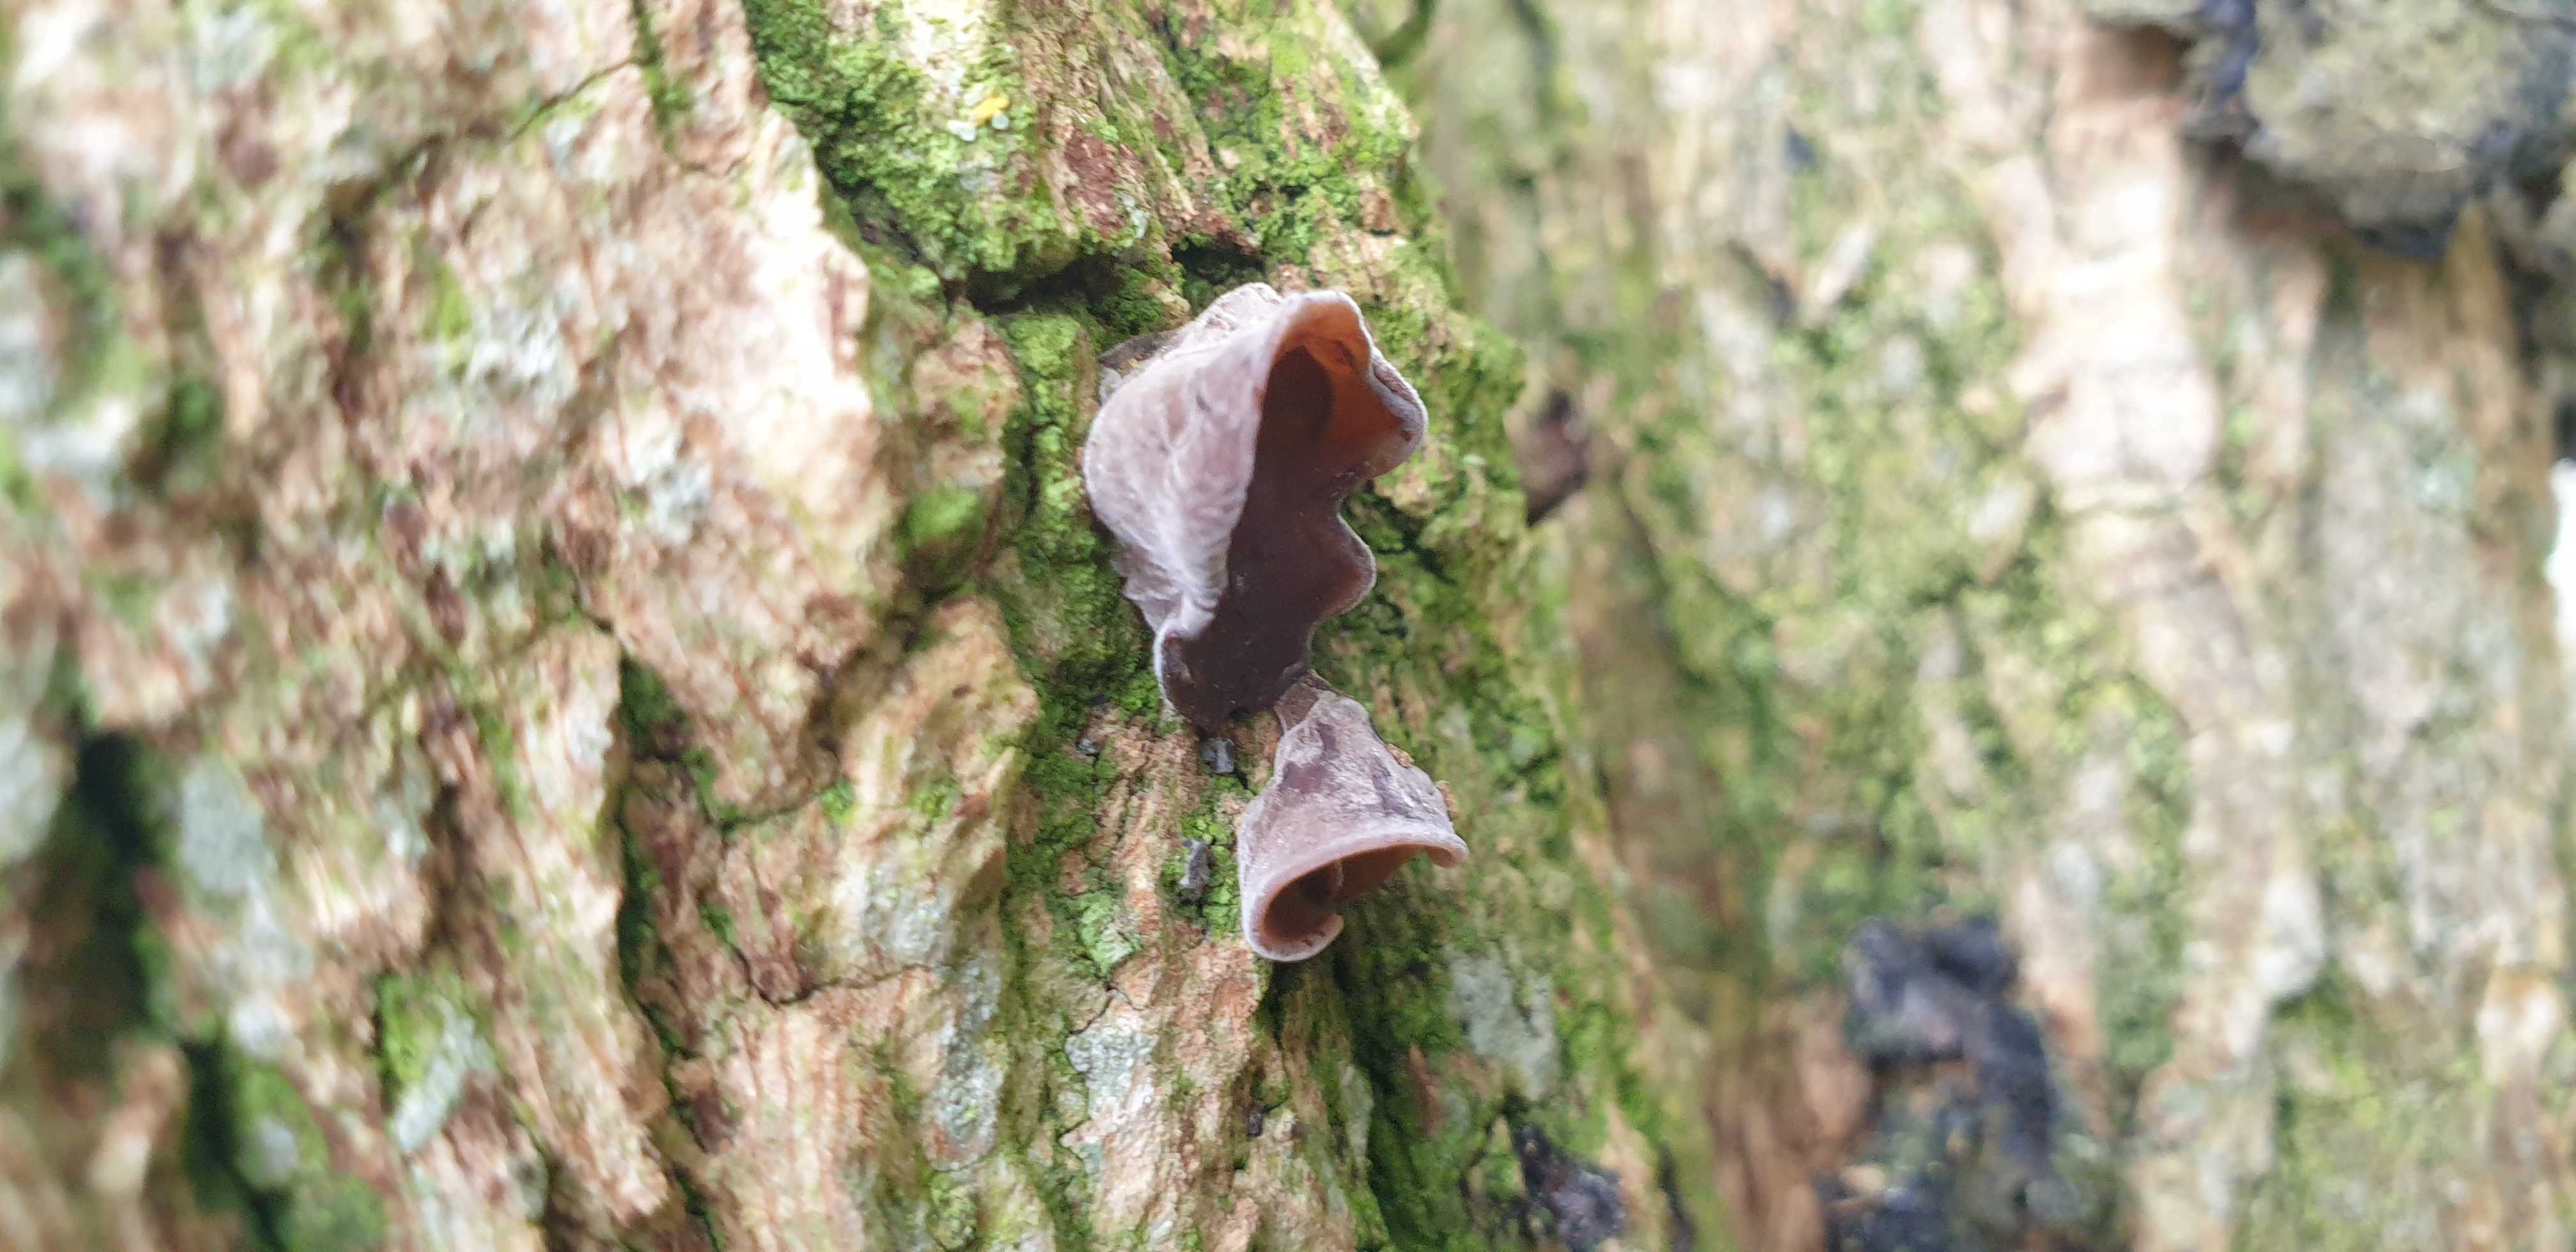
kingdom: Fungi
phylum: Basidiomycota
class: Agaricomycetes
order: Auriculariales
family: Auriculariaceae
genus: Auricularia
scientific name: Auricularia auricula-judae
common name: almindelig judasøre
